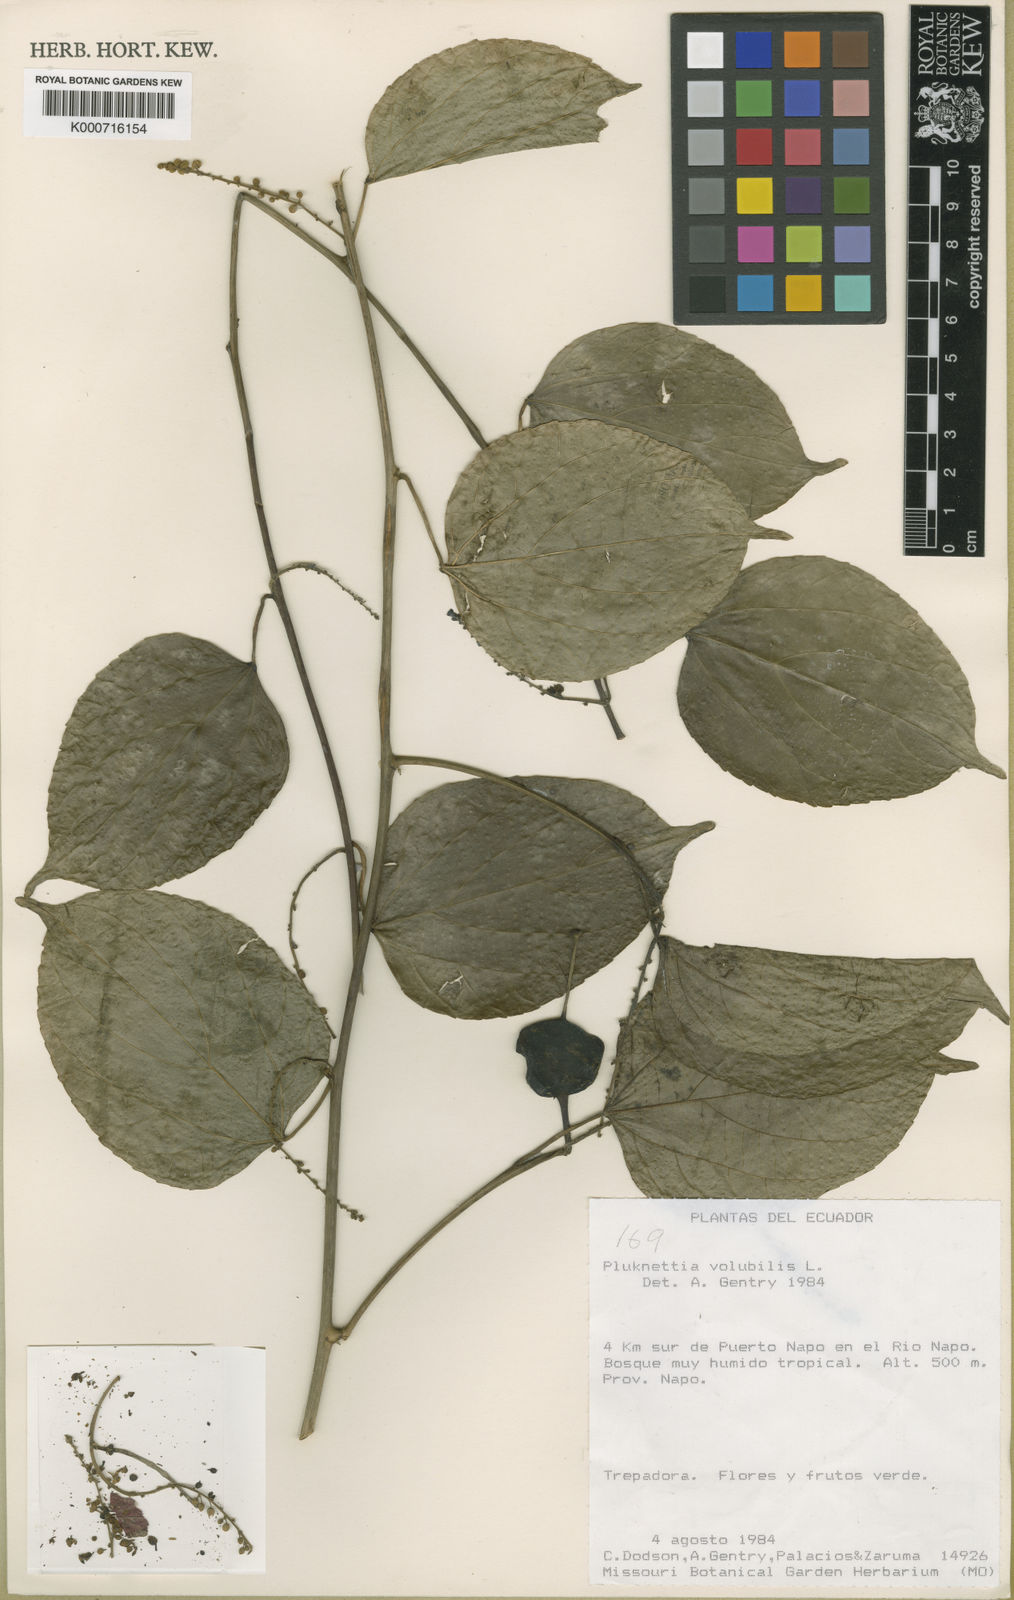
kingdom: Plantae
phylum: Tracheophyta
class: Magnoliopsida
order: Malpighiales
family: Euphorbiaceae
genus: Plukenetia
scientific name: Plukenetia volubilis
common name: Inca-peanut
